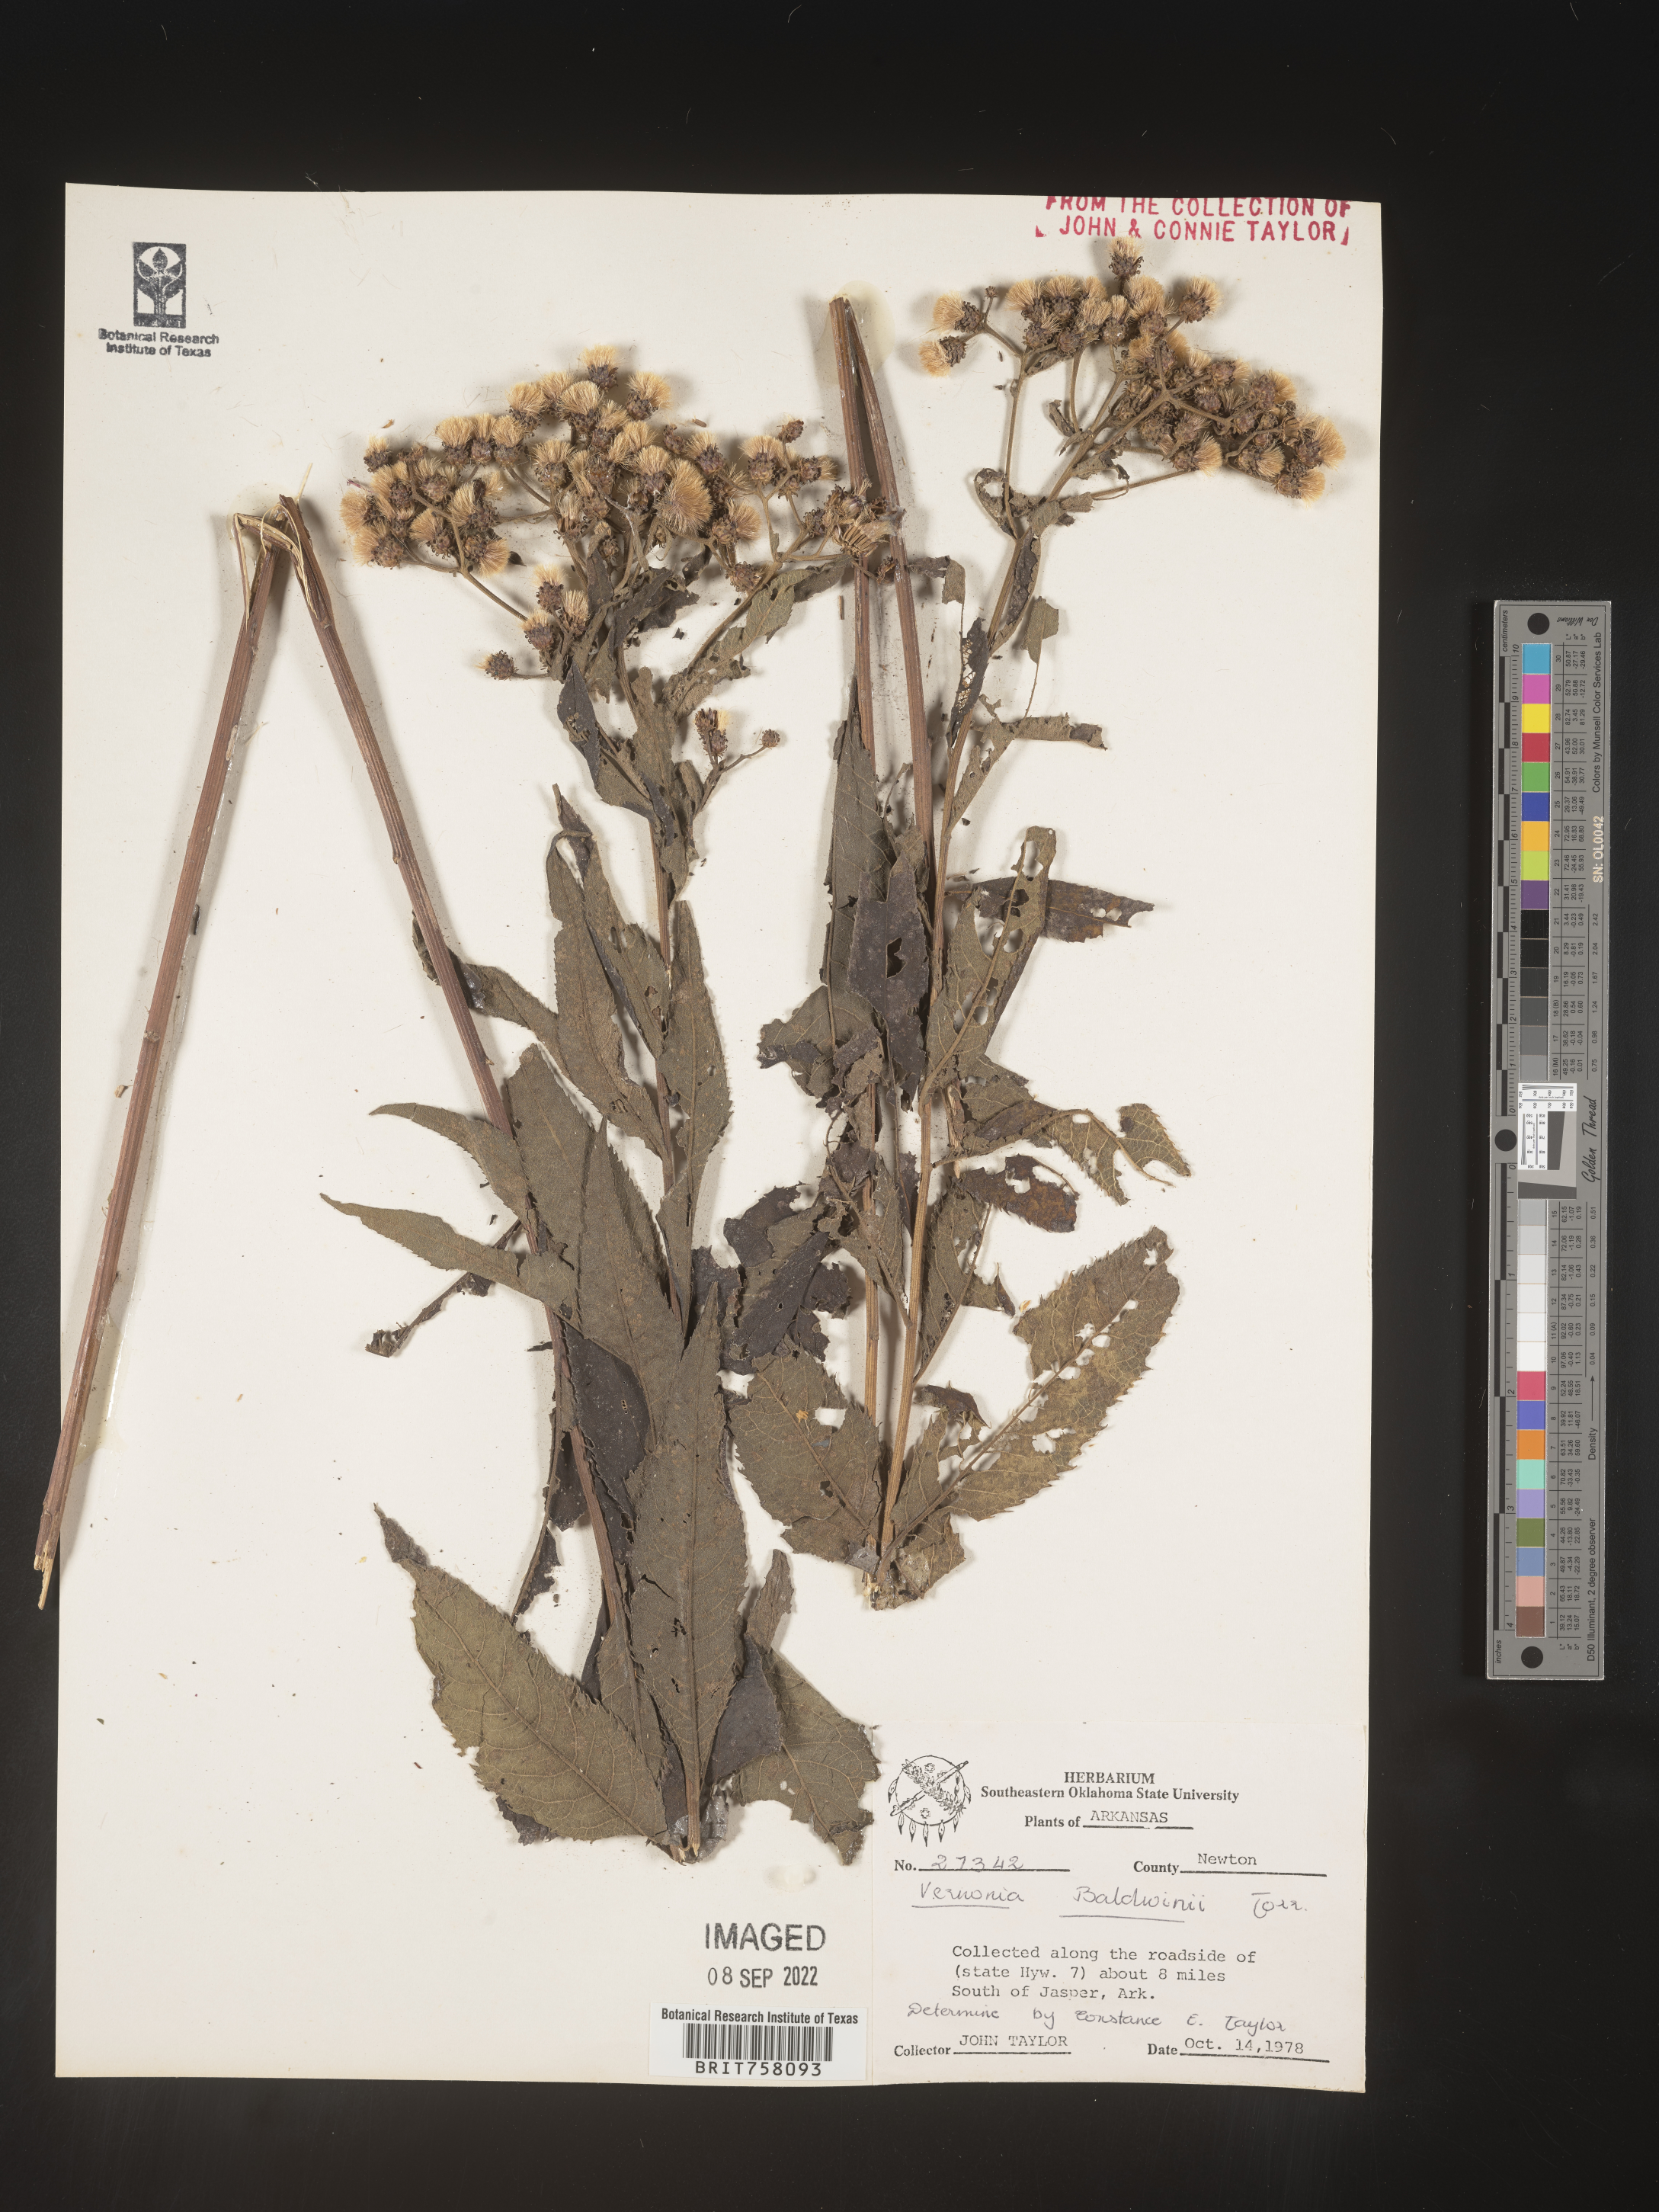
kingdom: Plantae
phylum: Tracheophyta
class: Magnoliopsida
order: Asterales
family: Asteraceae
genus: Vernonia
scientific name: Vernonia baldwinii
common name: Western ironweed
